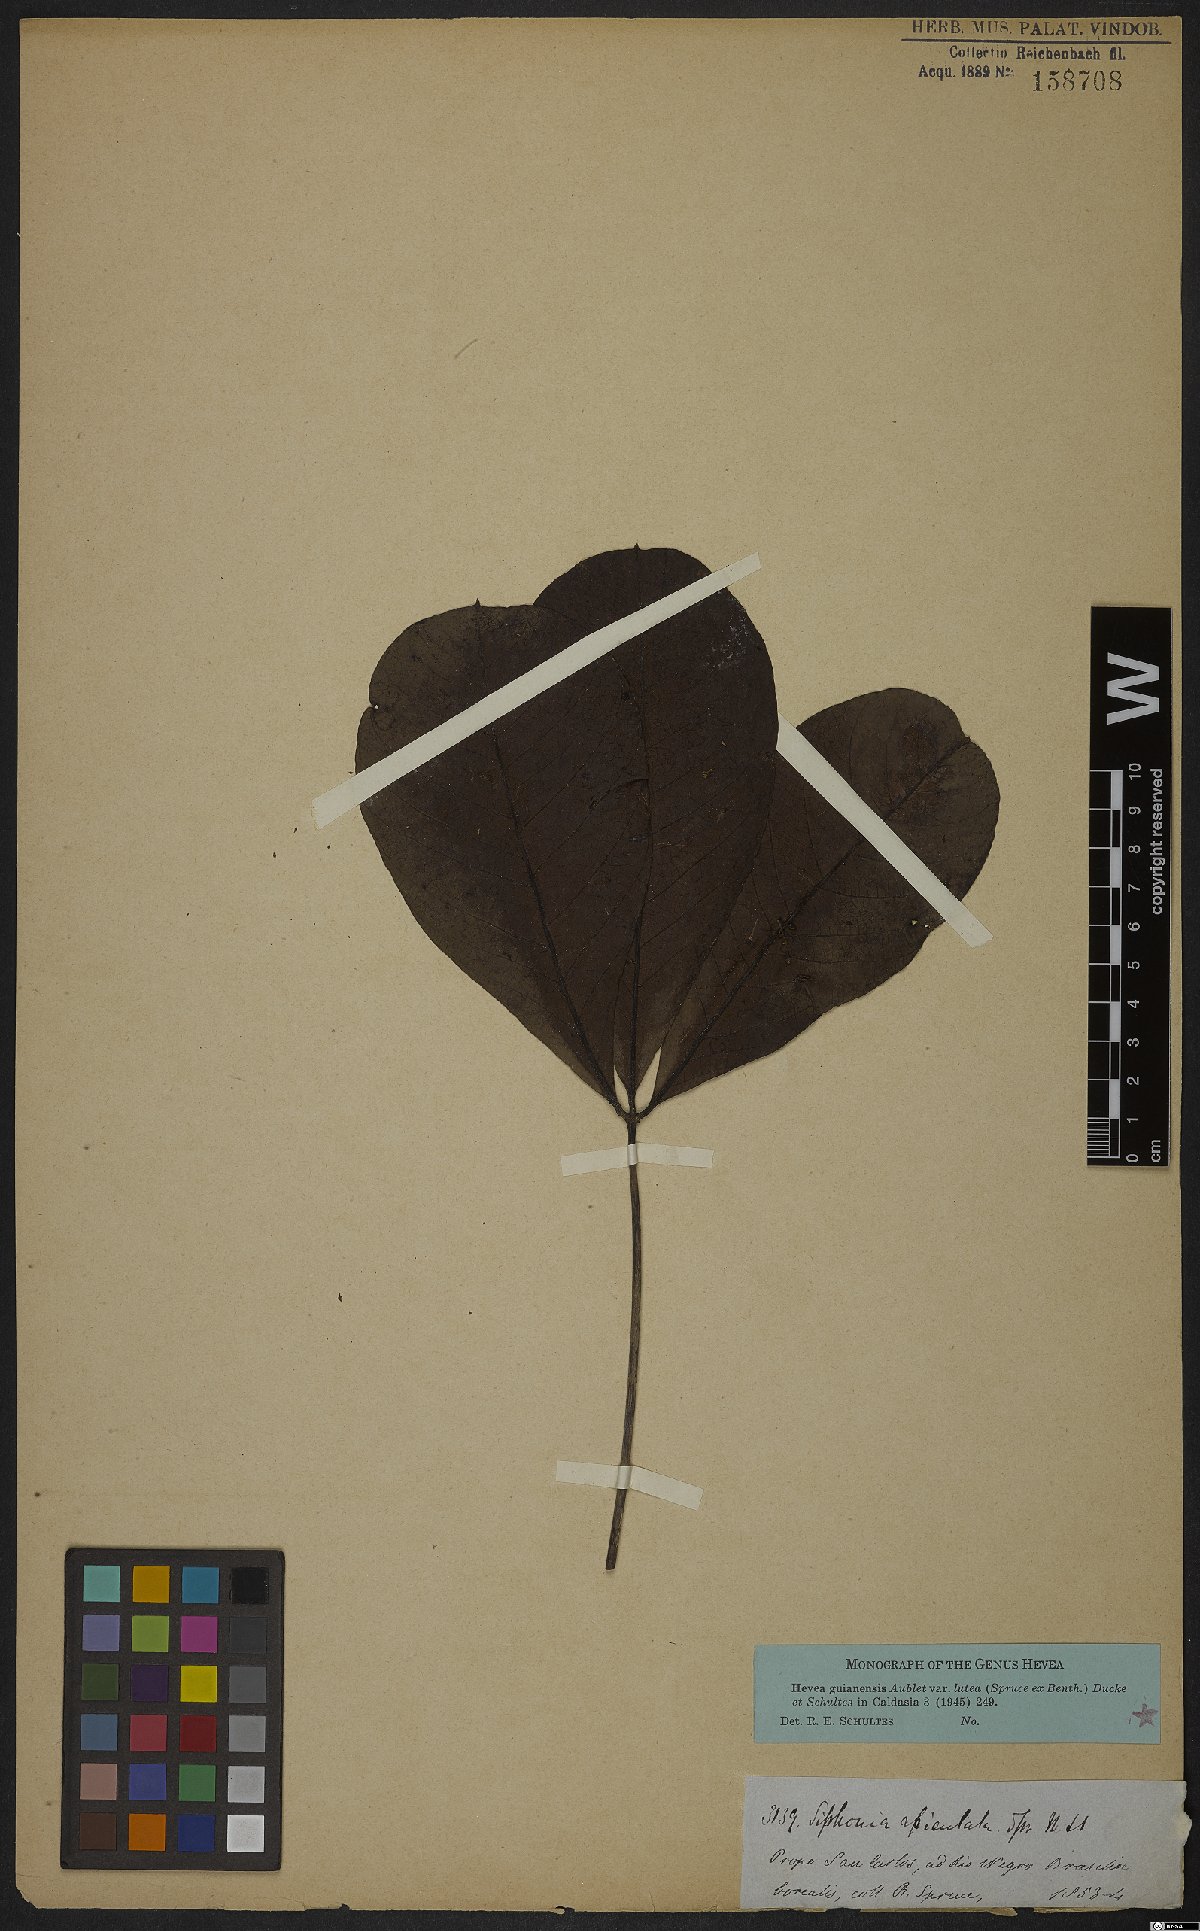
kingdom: Plantae
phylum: Tracheophyta
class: Magnoliopsida
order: Malpighiales
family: Euphorbiaceae
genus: Hevea
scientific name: Hevea guianensis
